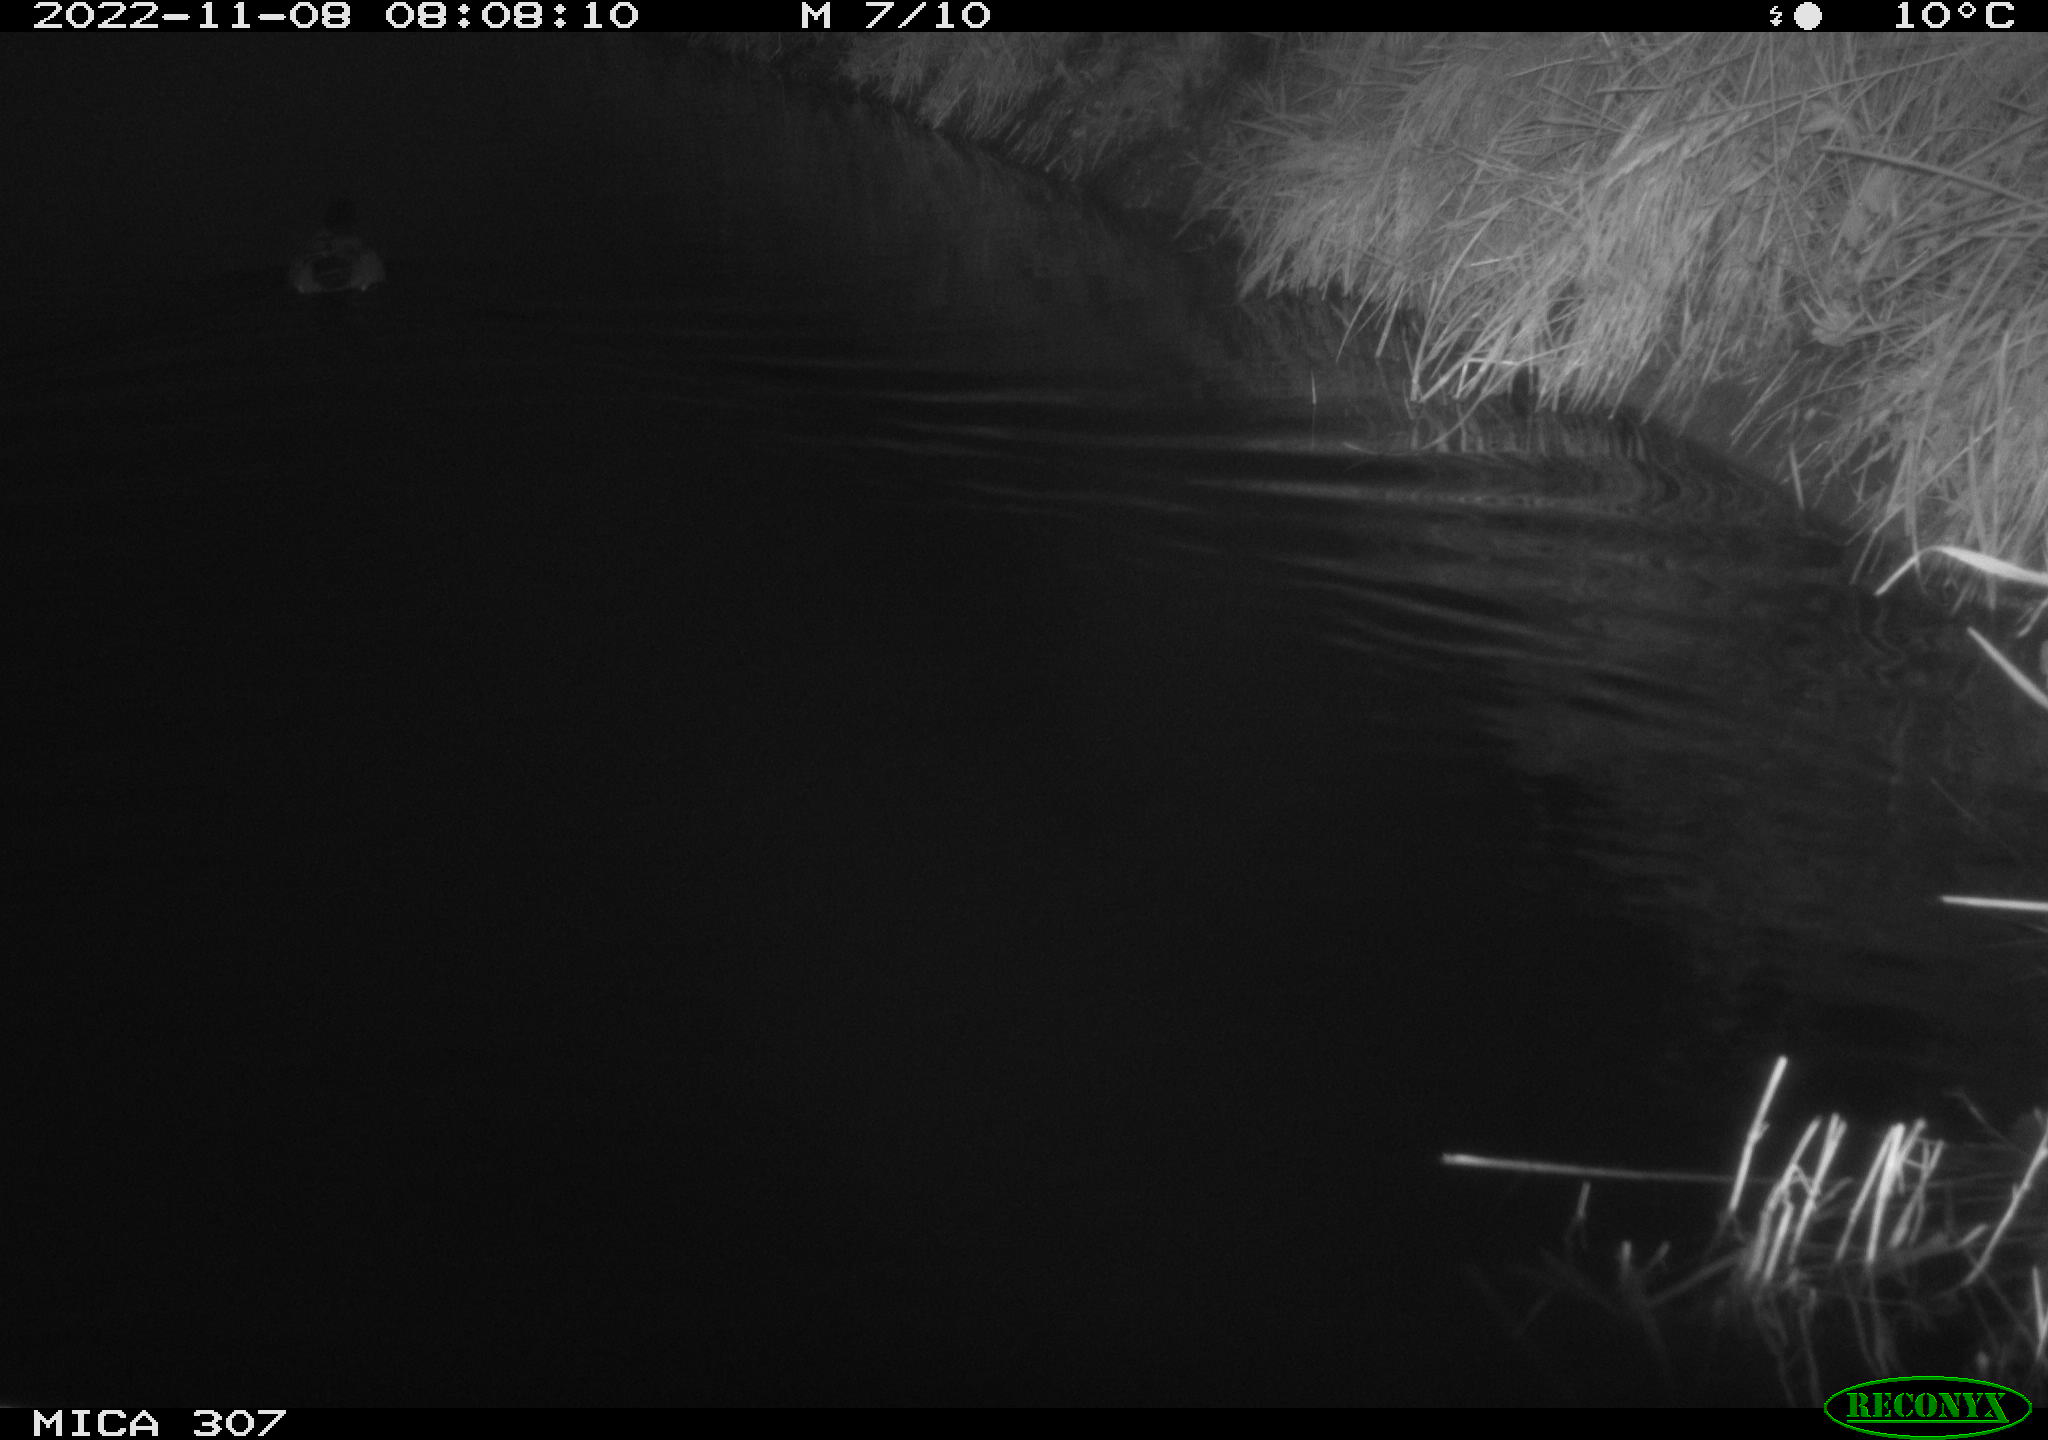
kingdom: Animalia
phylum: Chordata
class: Aves
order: Anseriformes
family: Anatidae
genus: Anas
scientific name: Anas
